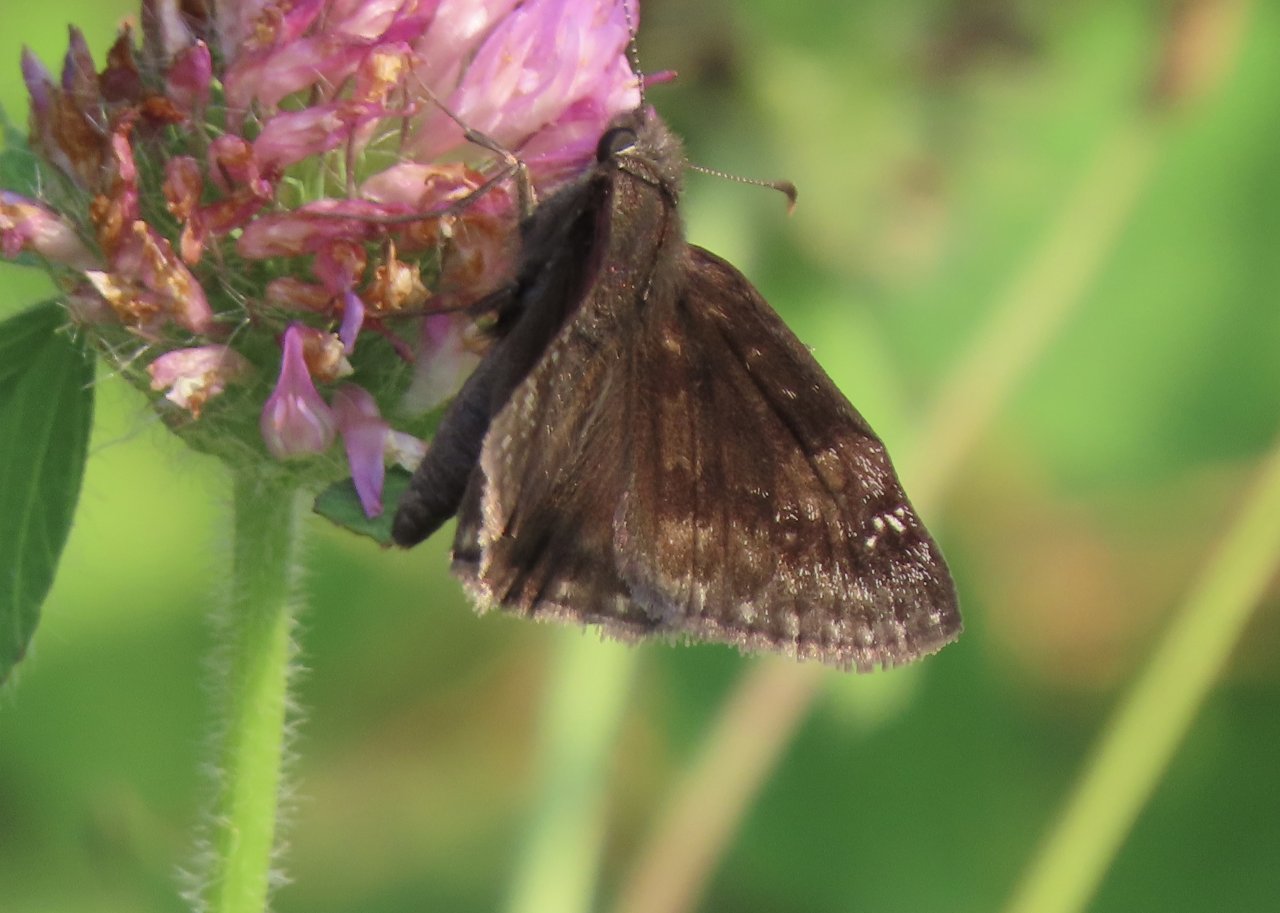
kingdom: Animalia
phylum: Arthropoda
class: Insecta
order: Lepidoptera
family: Hesperiidae
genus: Gesta
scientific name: Gesta
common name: Wild Indigo Duskywing
